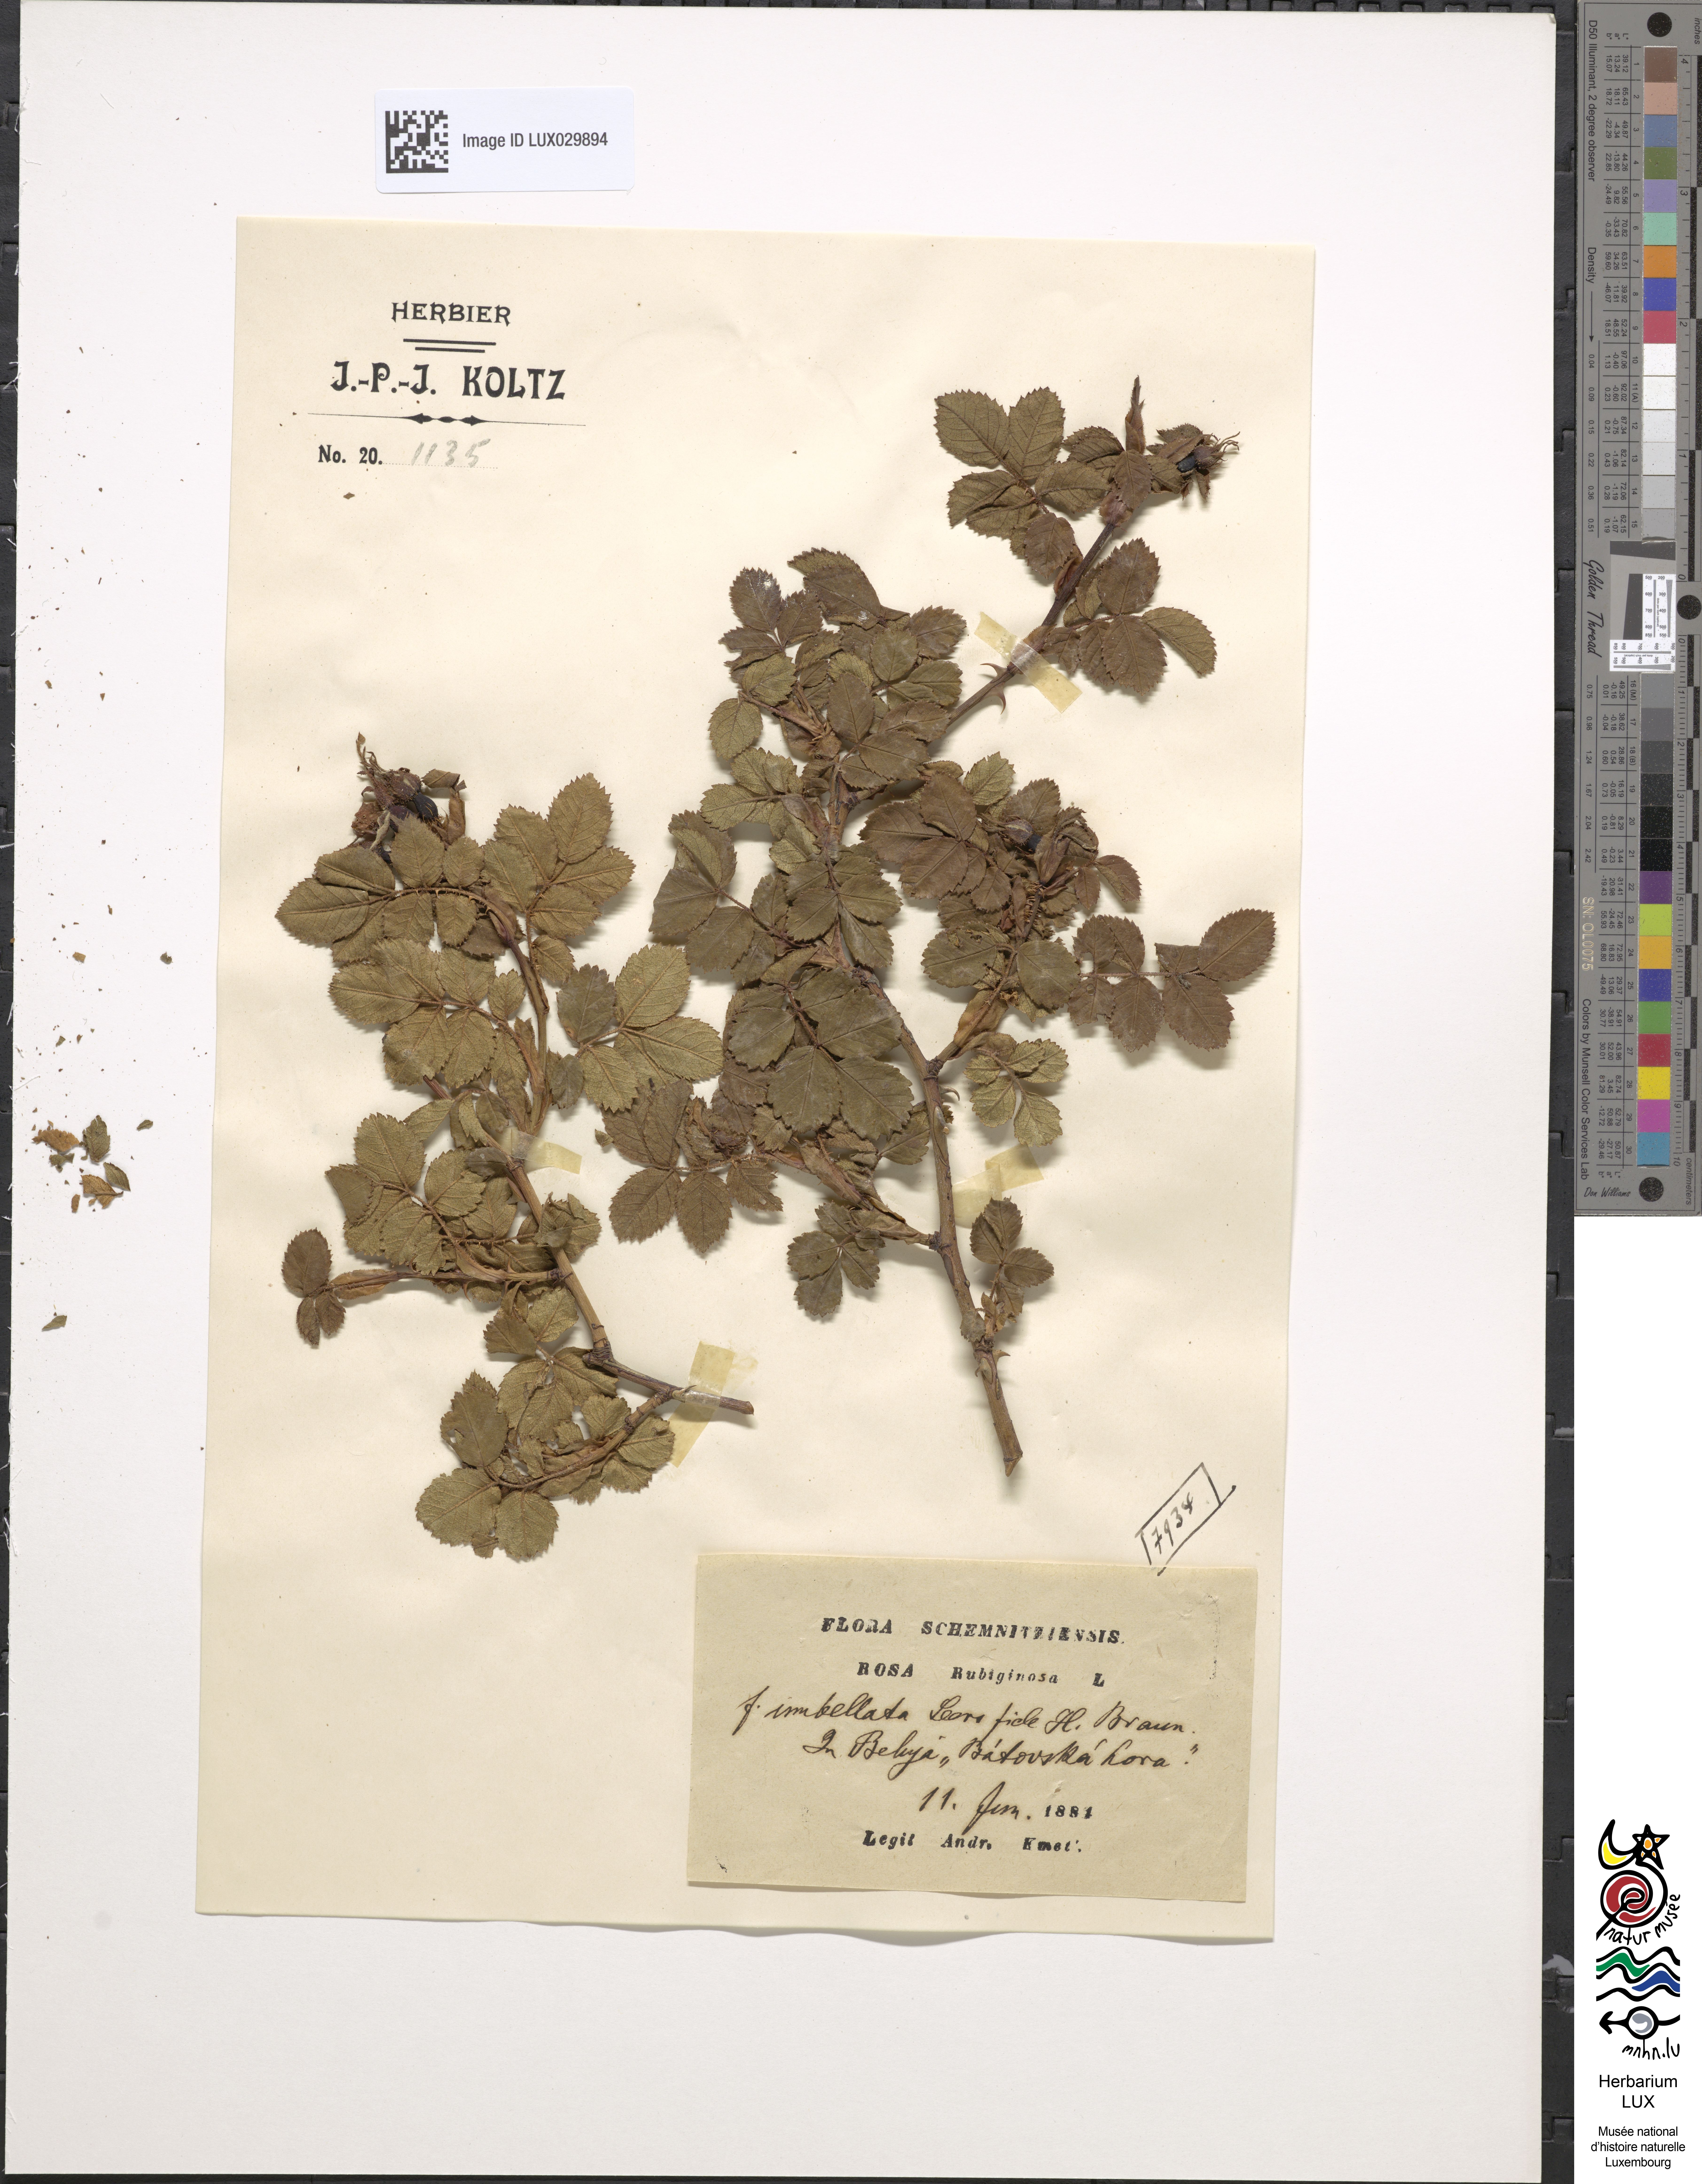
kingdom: Plantae
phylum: Tracheophyta
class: Magnoliopsida
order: Rosales
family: Rosaceae
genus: Rosa
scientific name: Rosa rubiginosa
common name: Sweet-briar
